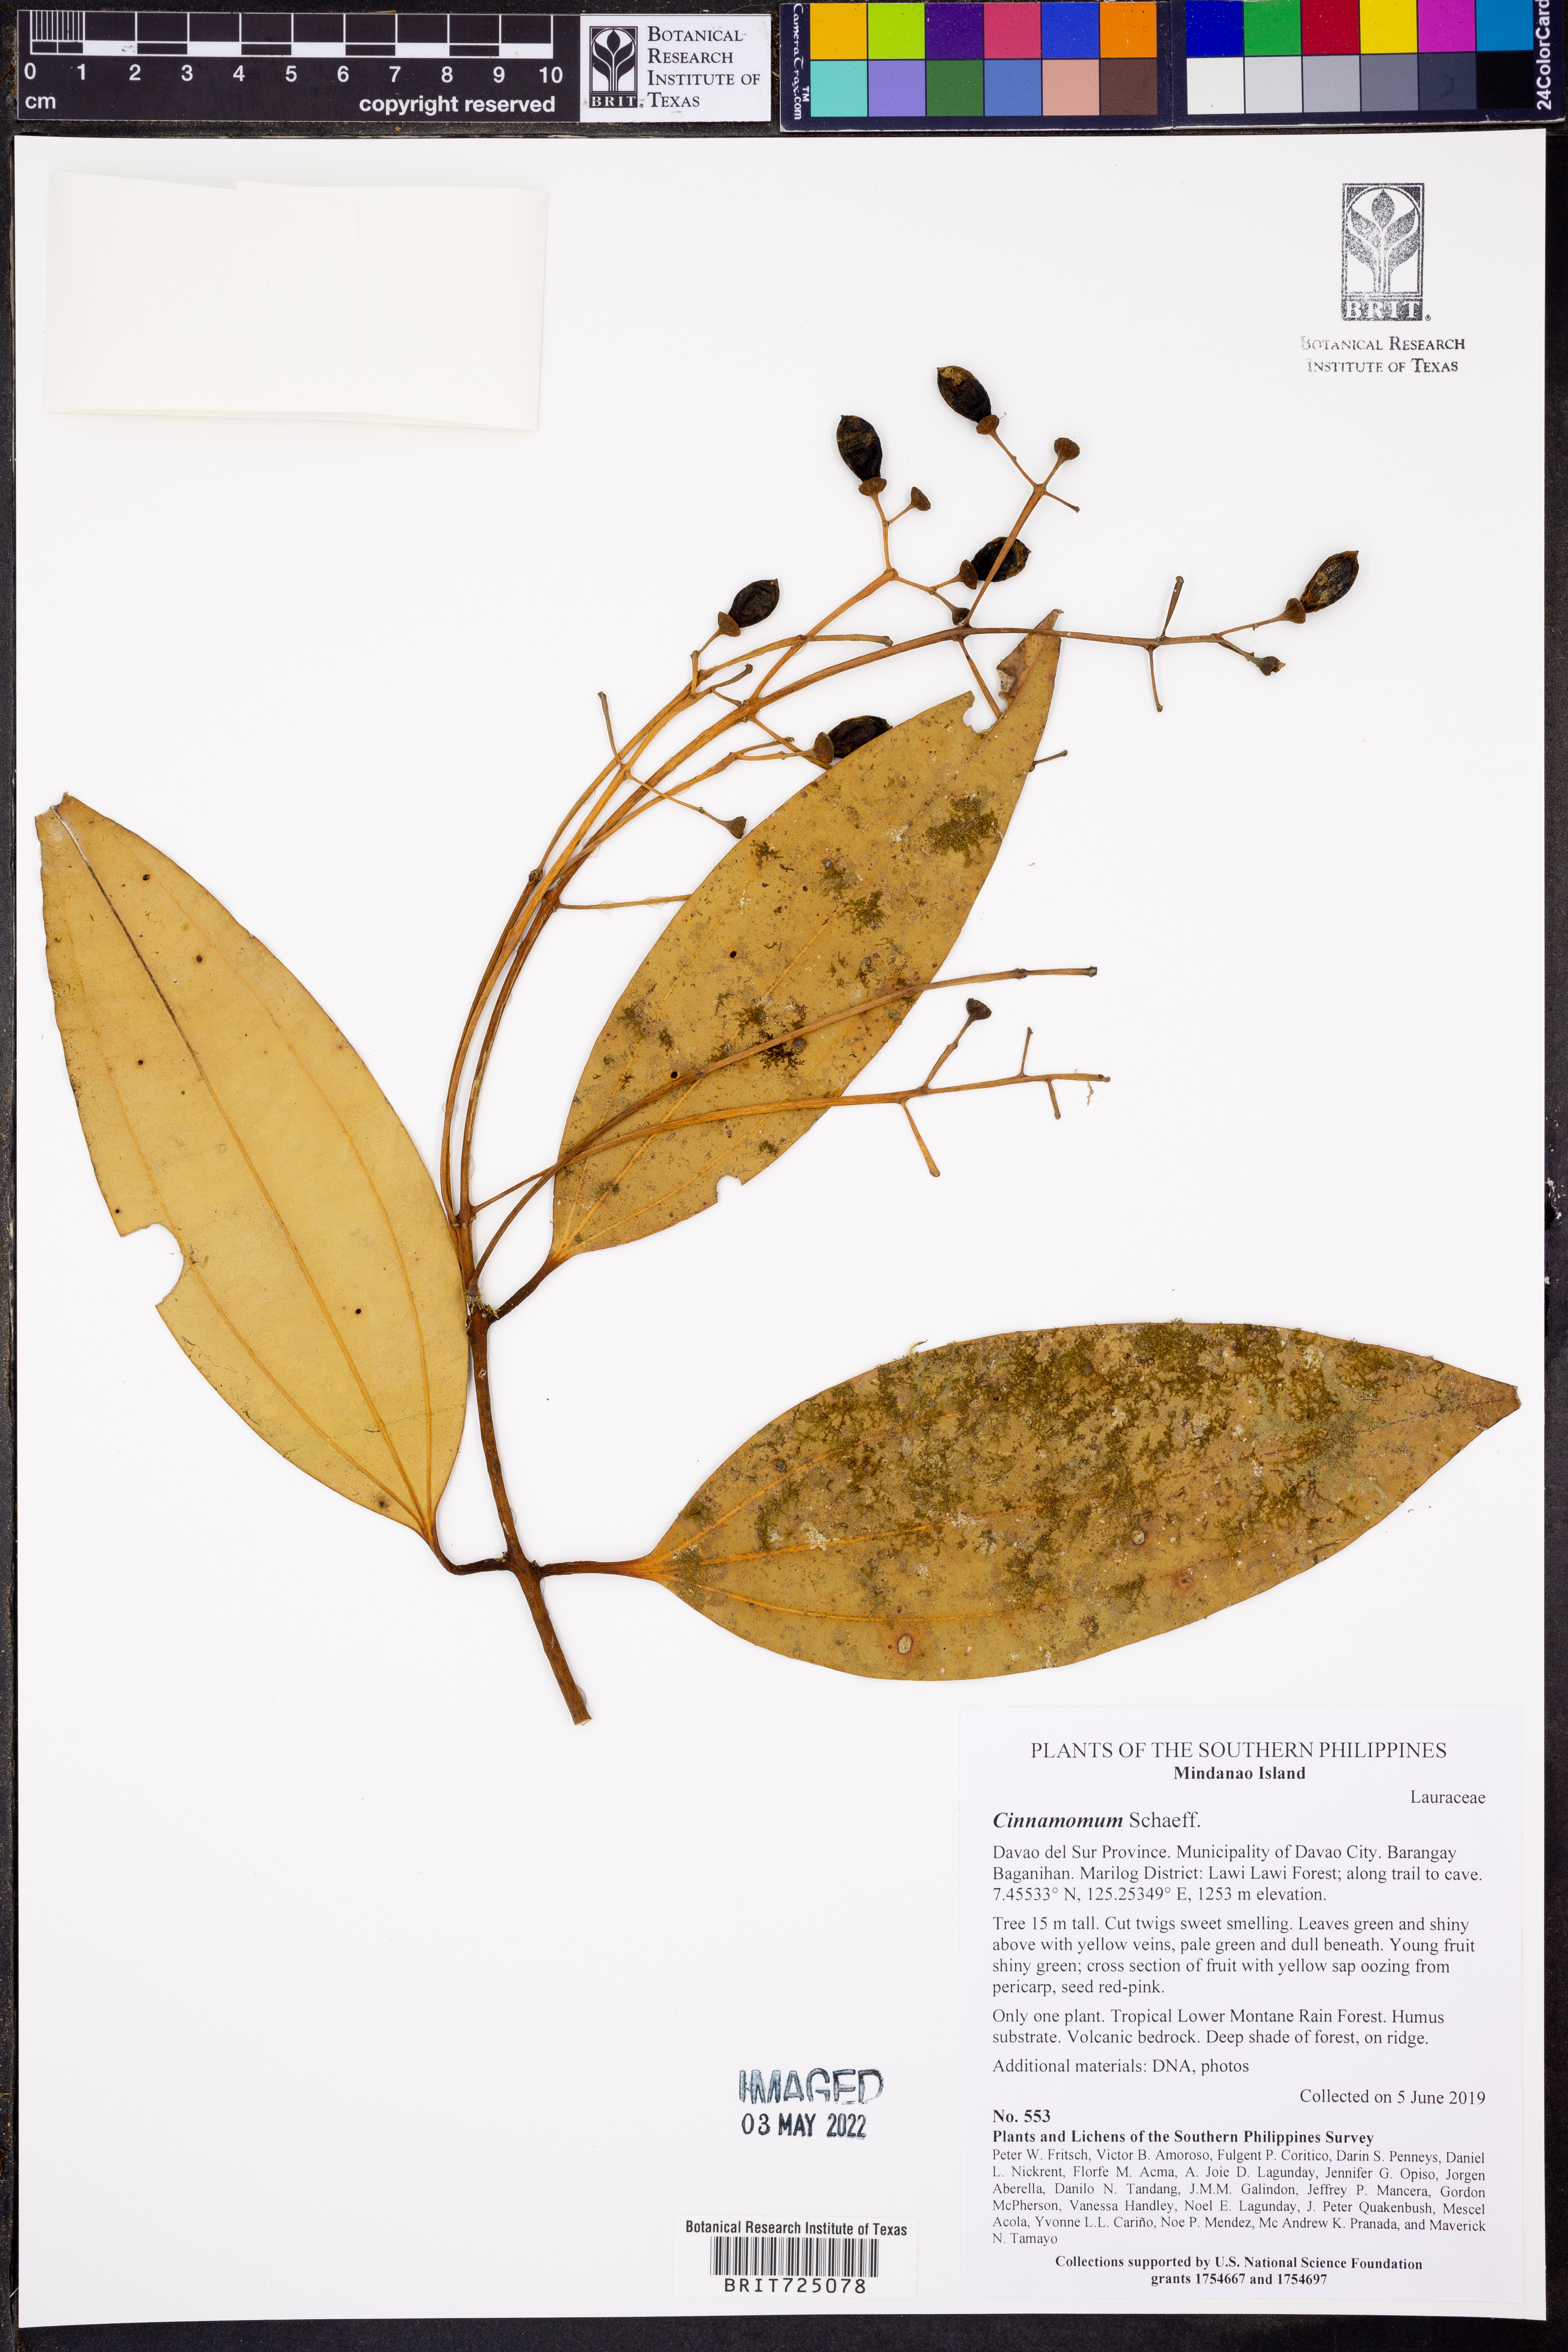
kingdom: Plantae
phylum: Tracheophyta
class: Magnoliopsida
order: Laurales
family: Lauraceae
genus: Cinnamomum
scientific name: Cinnamomum
